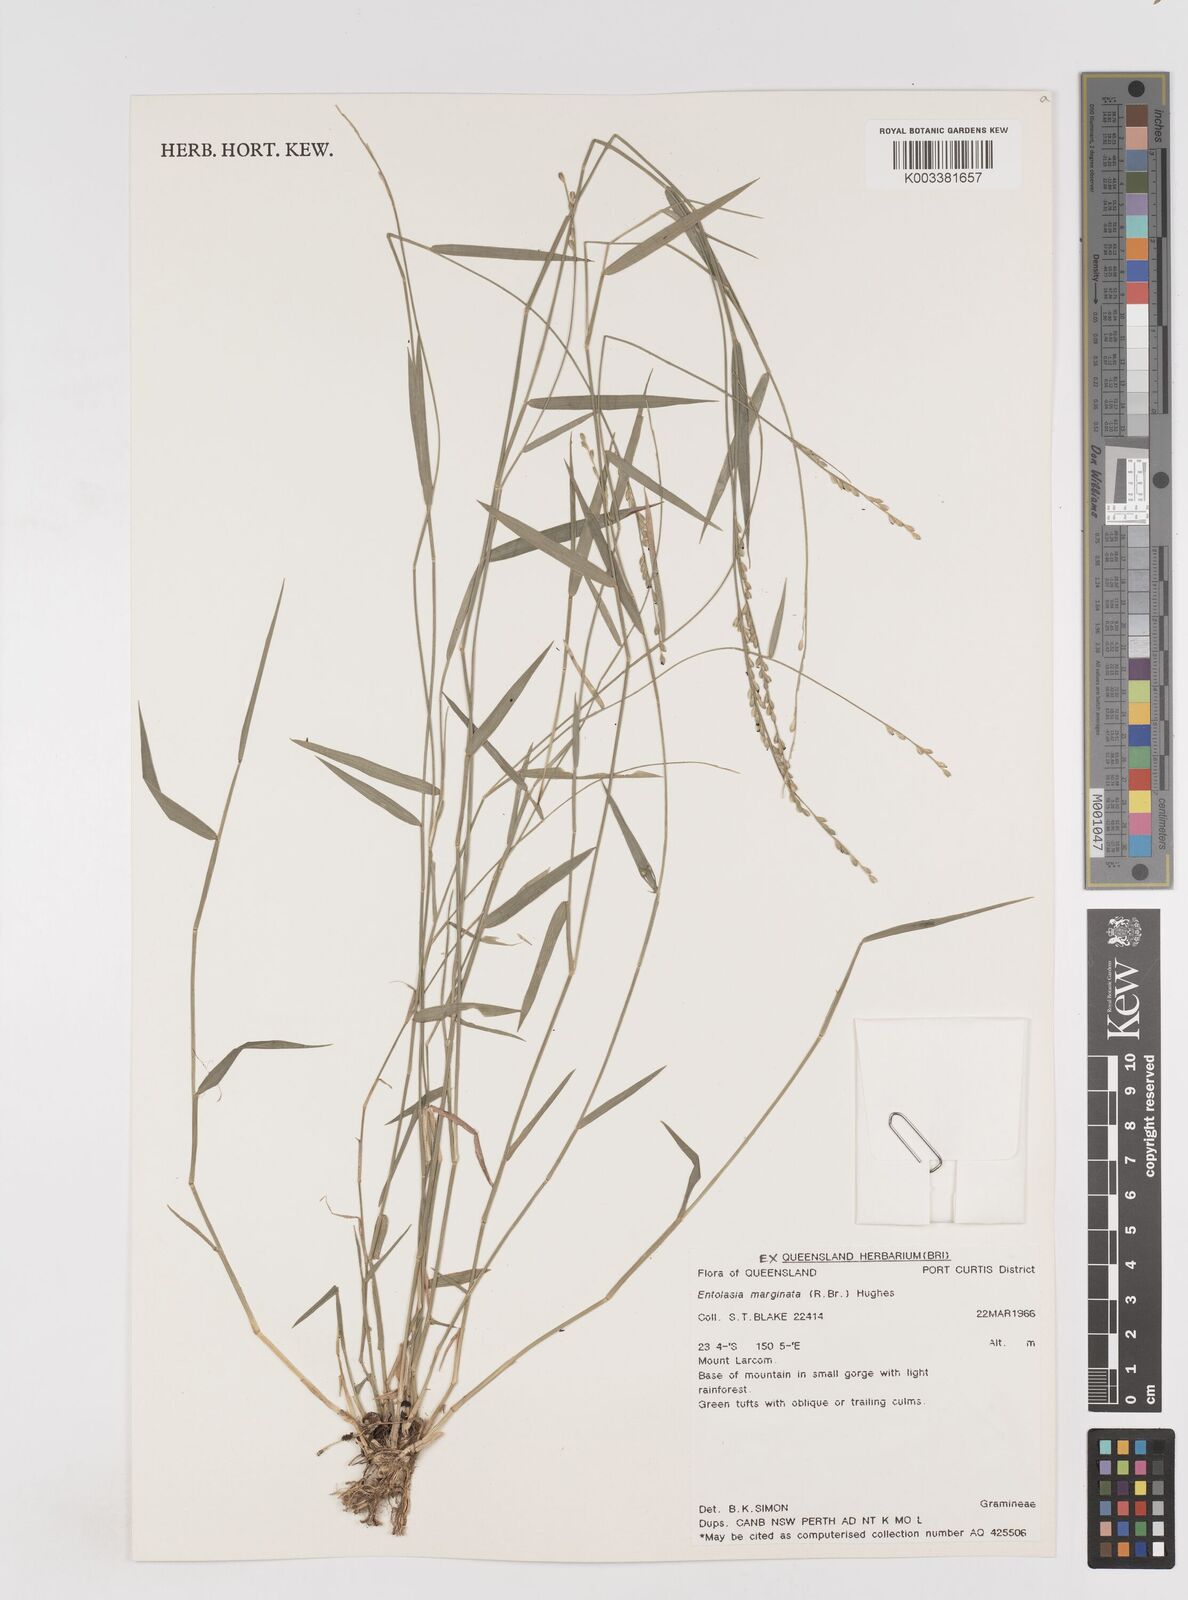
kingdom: Plantae
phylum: Tracheophyta
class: Liliopsida
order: Poales
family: Poaceae
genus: Entolasia
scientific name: Entolasia marginata
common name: Australian panicgrass
